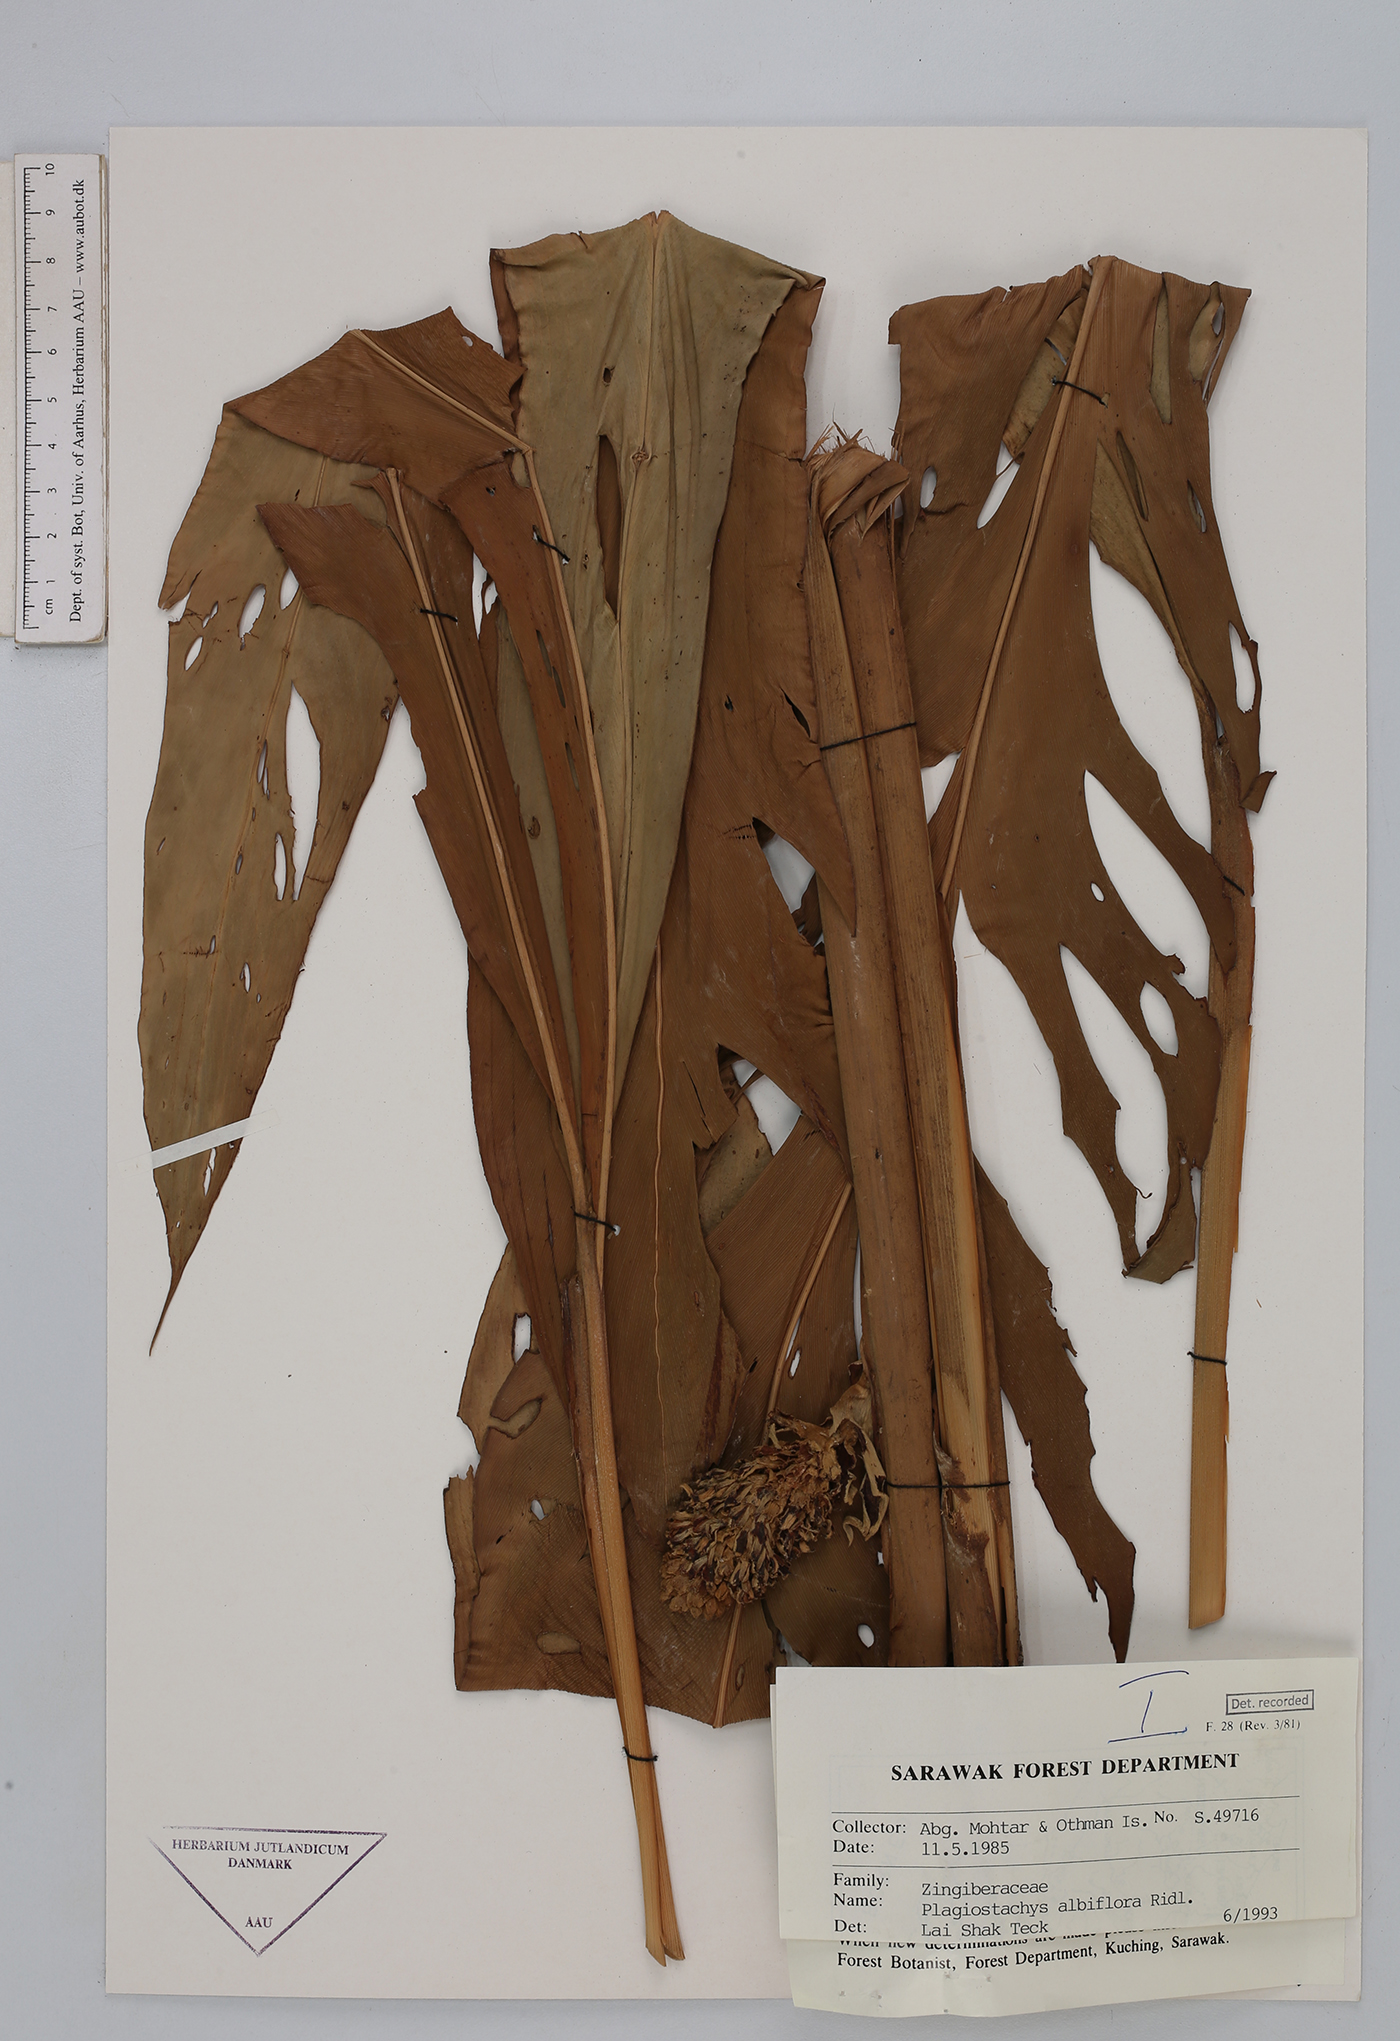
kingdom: Plantae
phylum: Tracheophyta
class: Liliopsida
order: Zingiberales
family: Zingiberaceae
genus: Plagiostachys
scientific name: Plagiostachys albiflora
